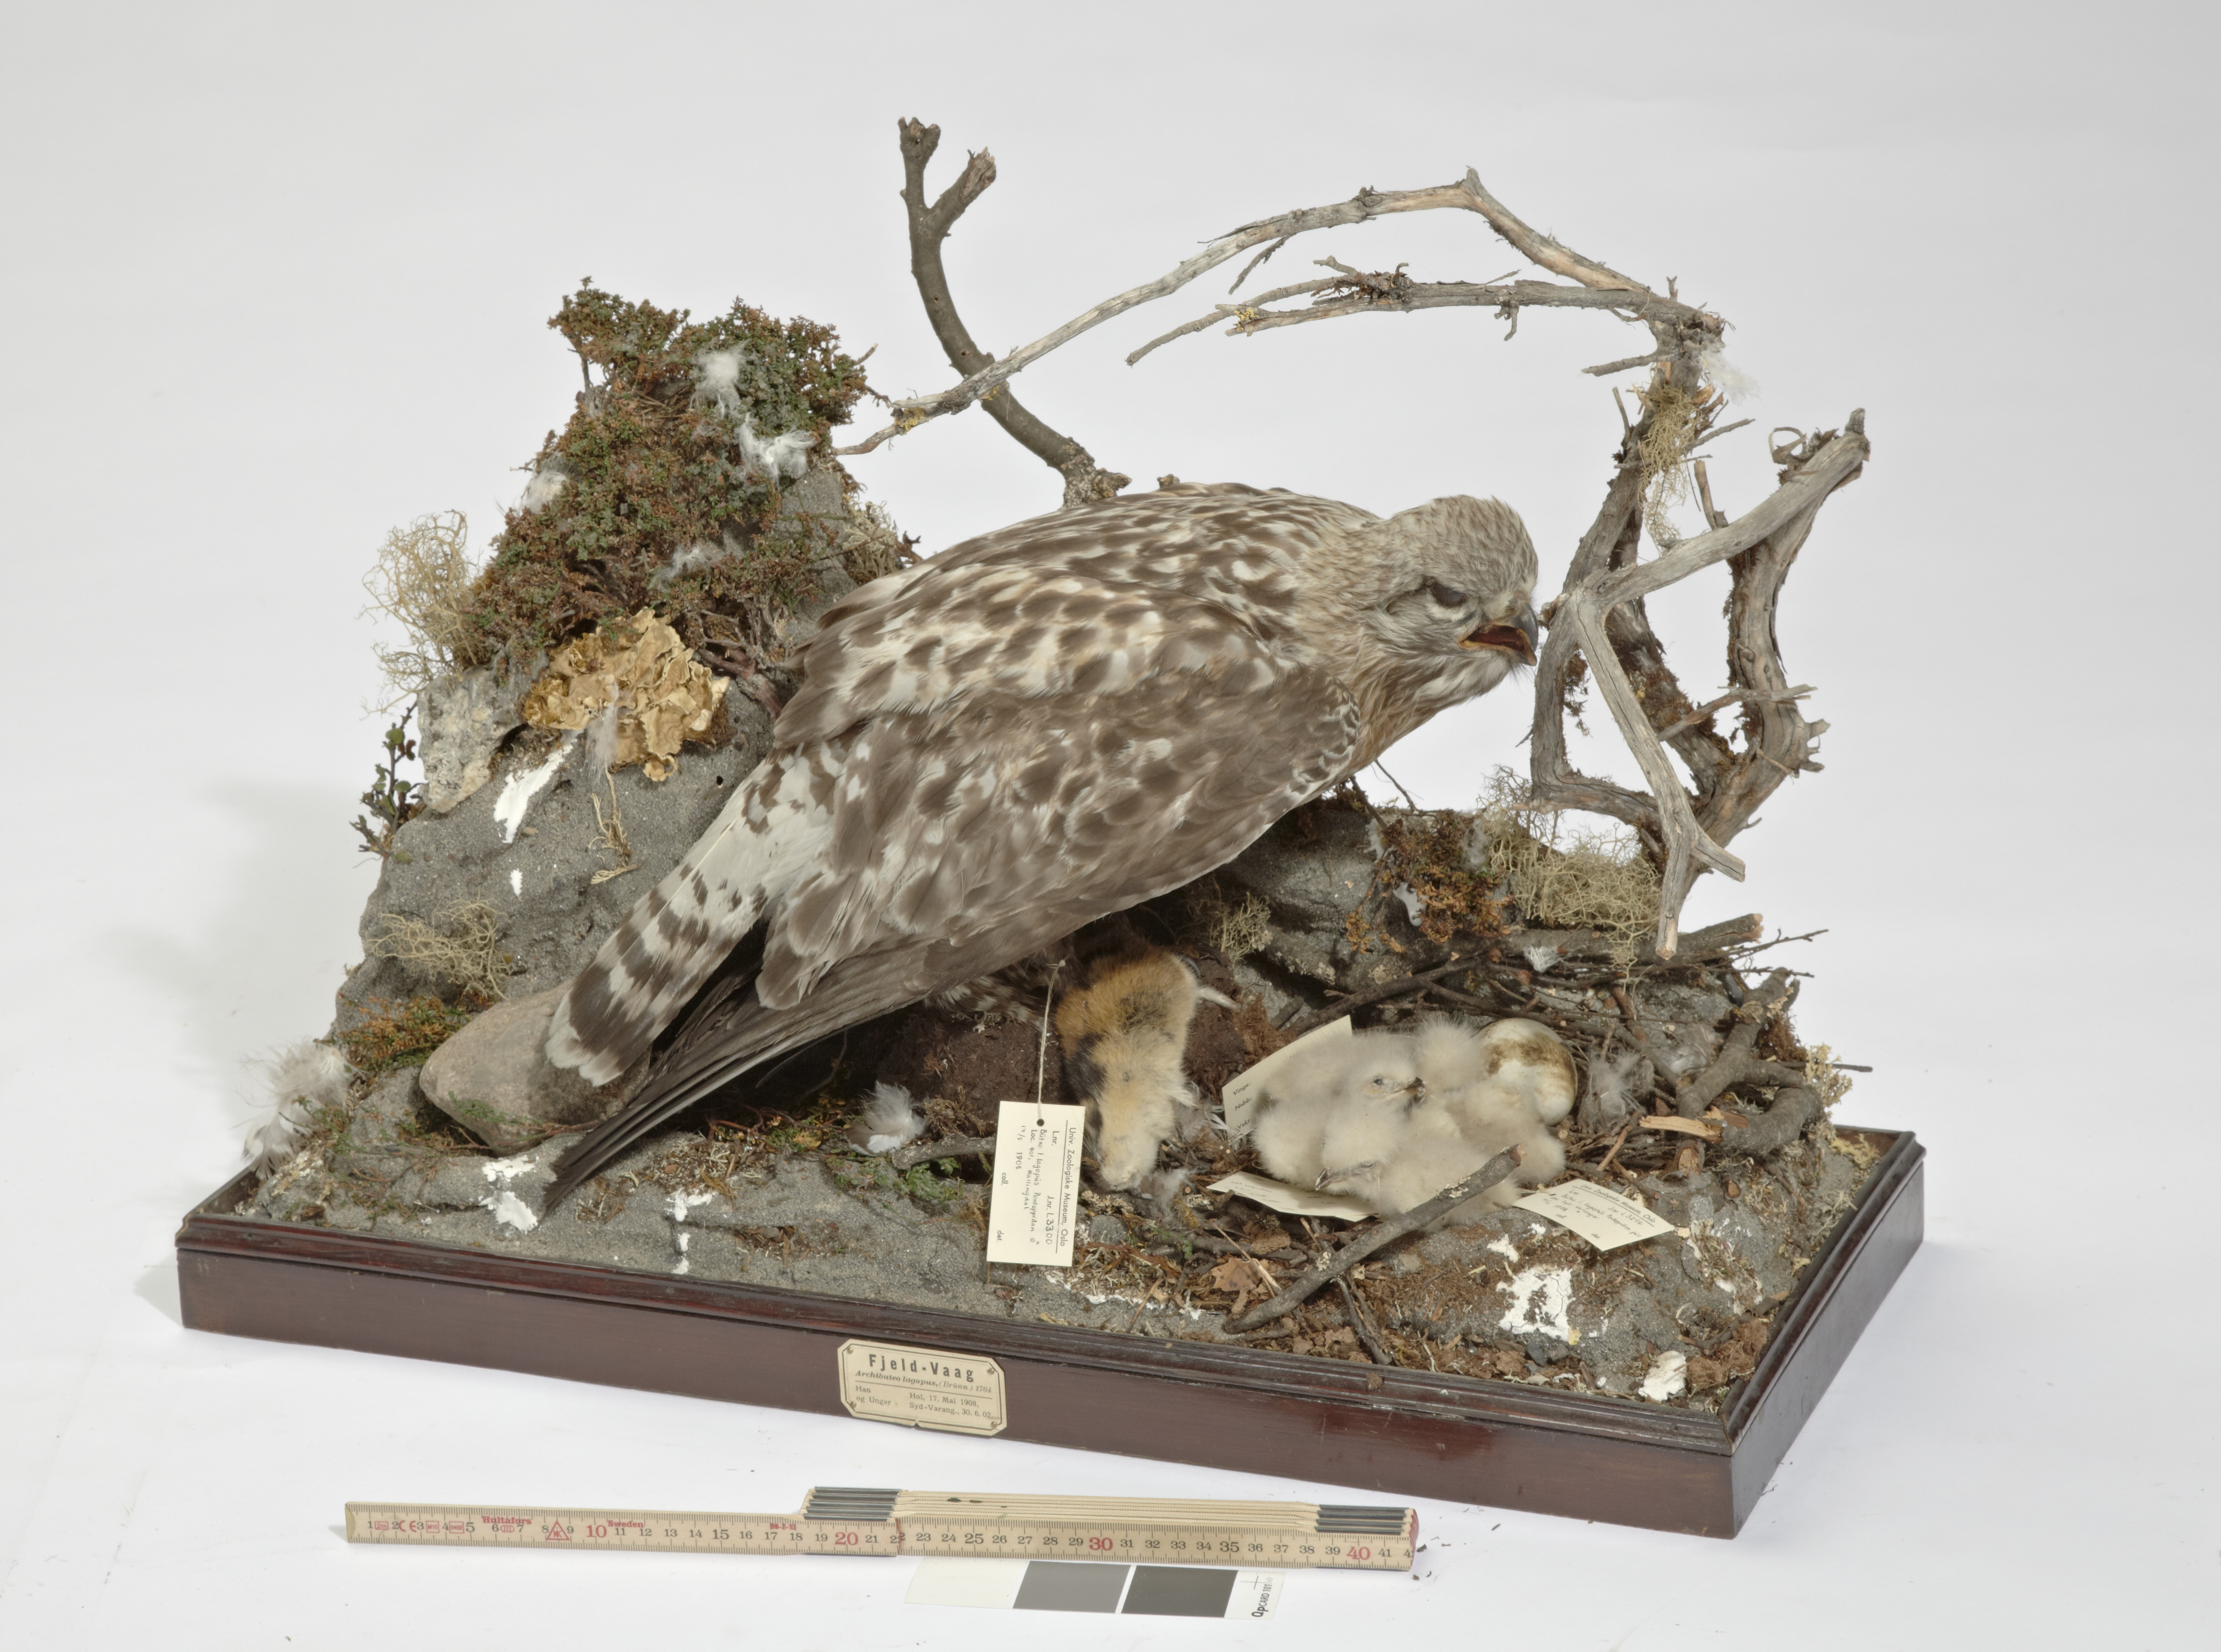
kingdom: Animalia
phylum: Chordata
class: Aves
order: Accipitriformes
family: Accipitridae
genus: Buteo
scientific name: Buteo lagopus
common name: Rough-legged buzzard
